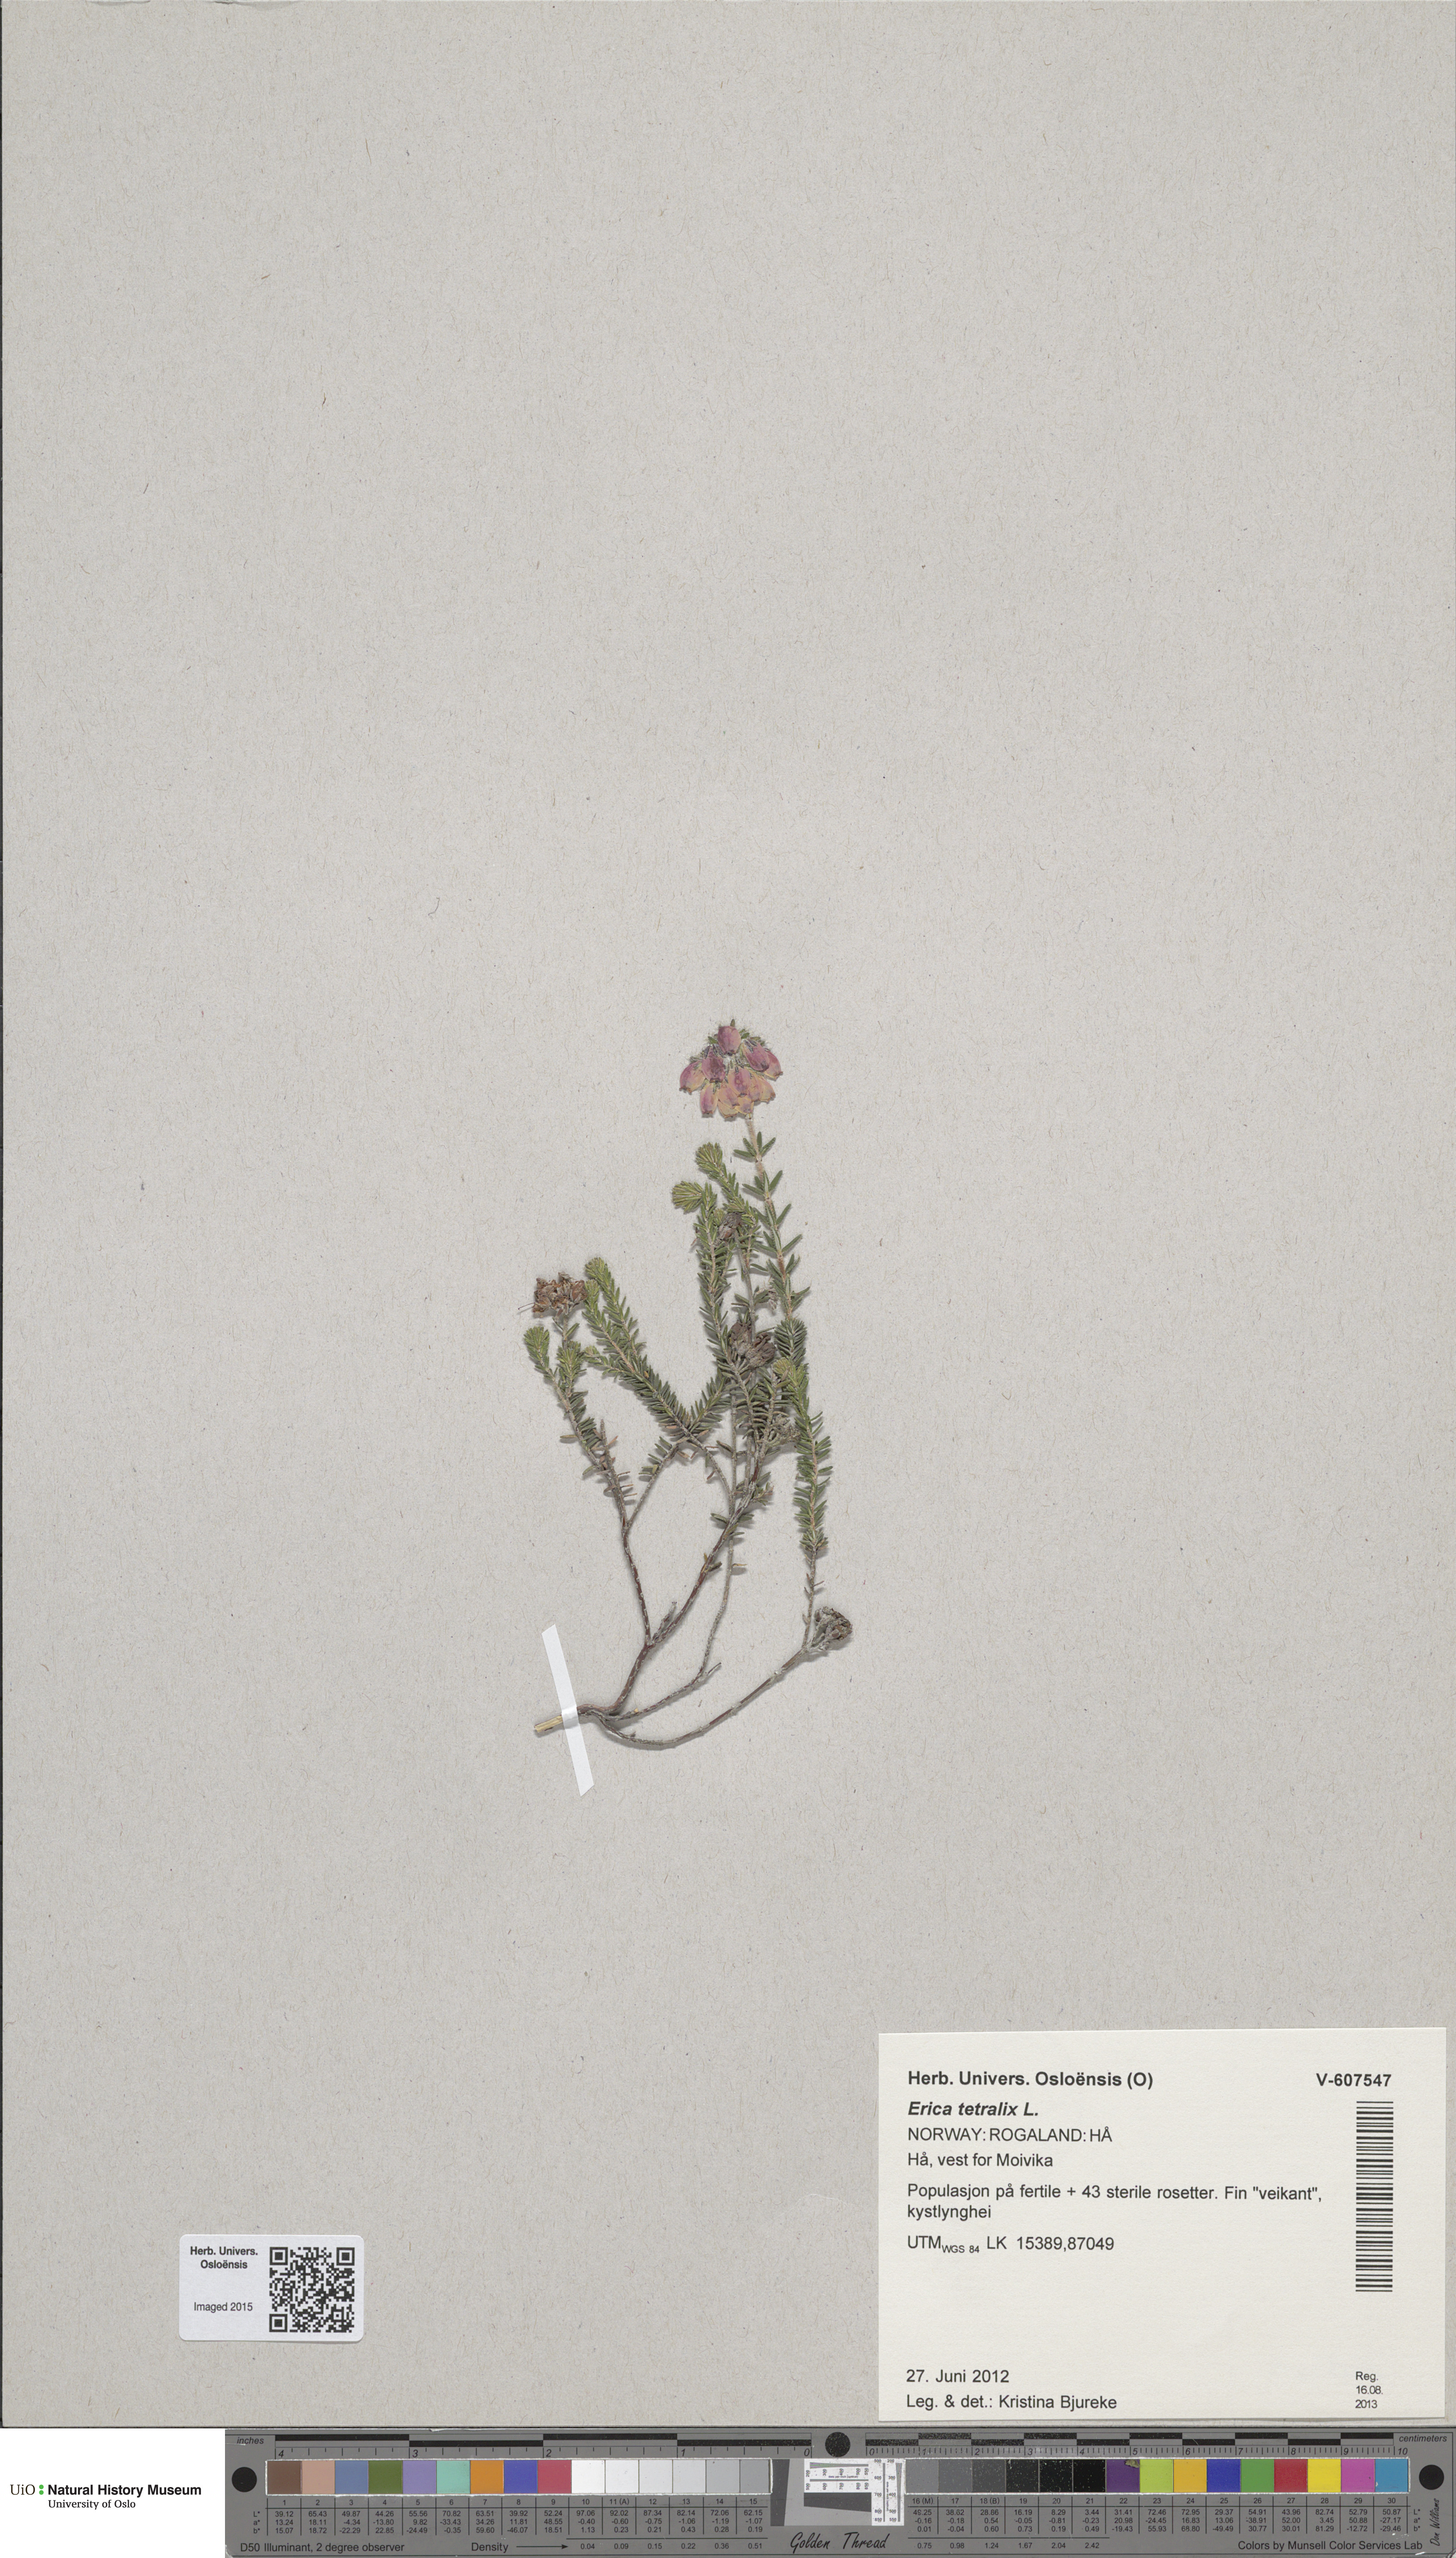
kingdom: Plantae
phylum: Tracheophyta
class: Magnoliopsida
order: Ericales
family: Ericaceae
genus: Erica
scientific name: Erica tetralix
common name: Cross-leaved heath
